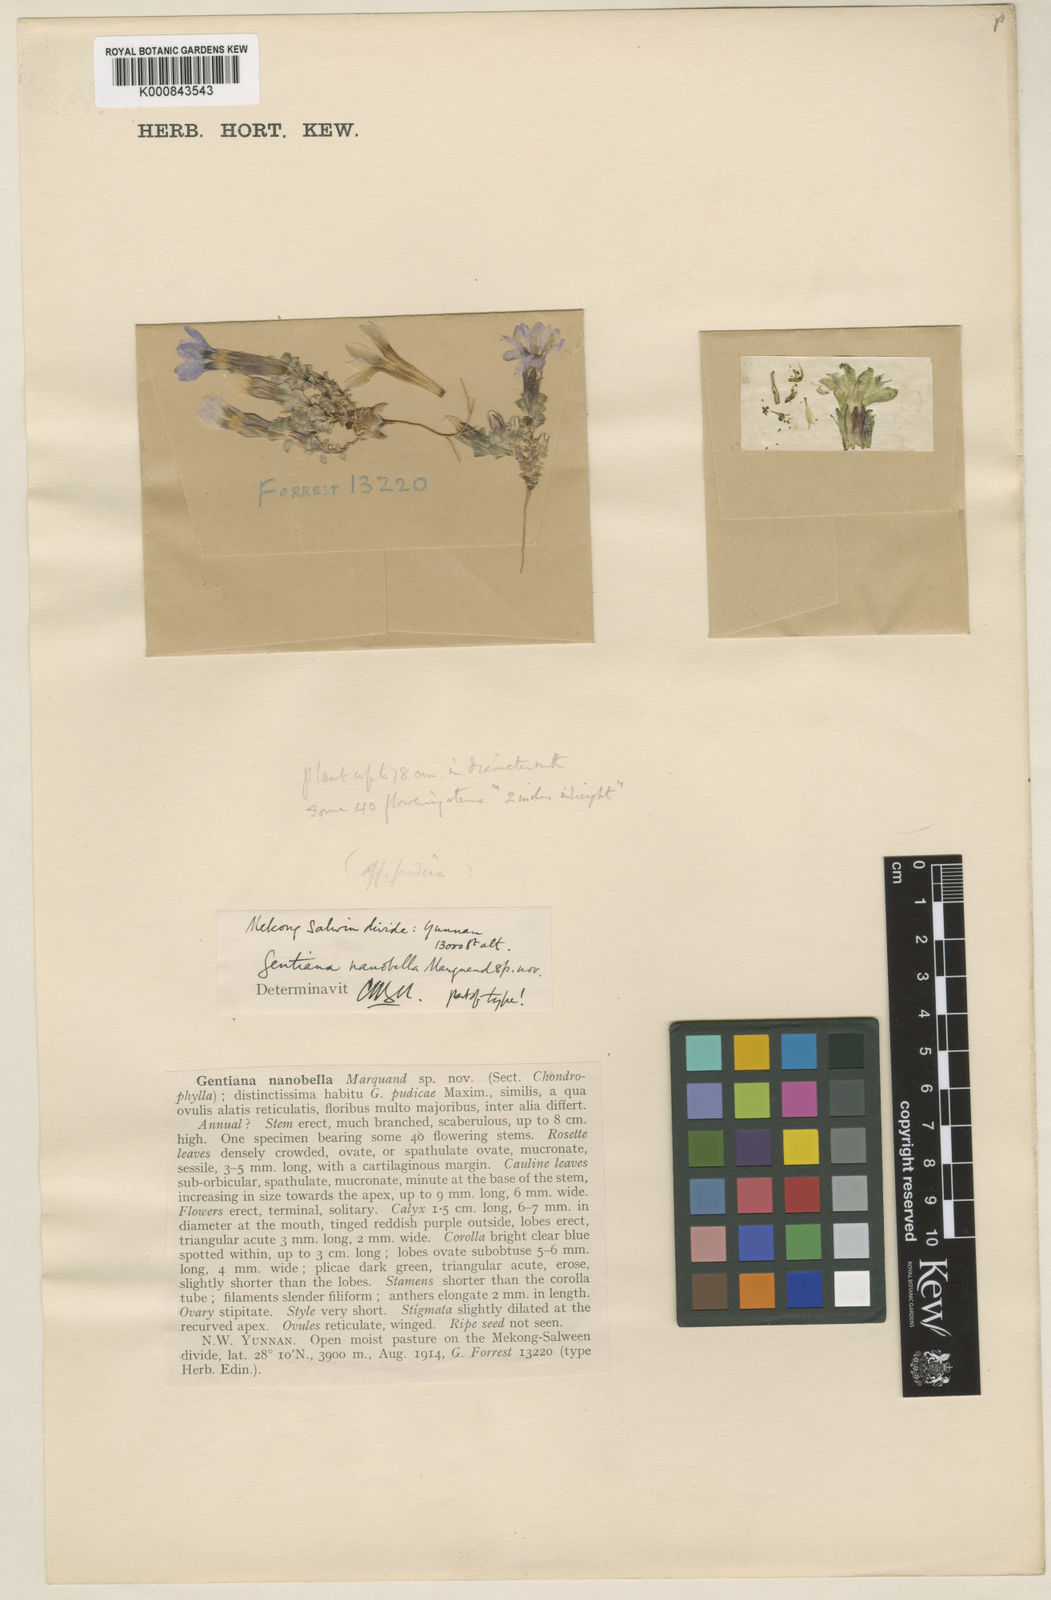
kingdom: Plantae
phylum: Tracheophyta
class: Magnoliopsida
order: Gentianales
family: Gentianaceae
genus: Gentiana
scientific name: Gentiana nanobella
